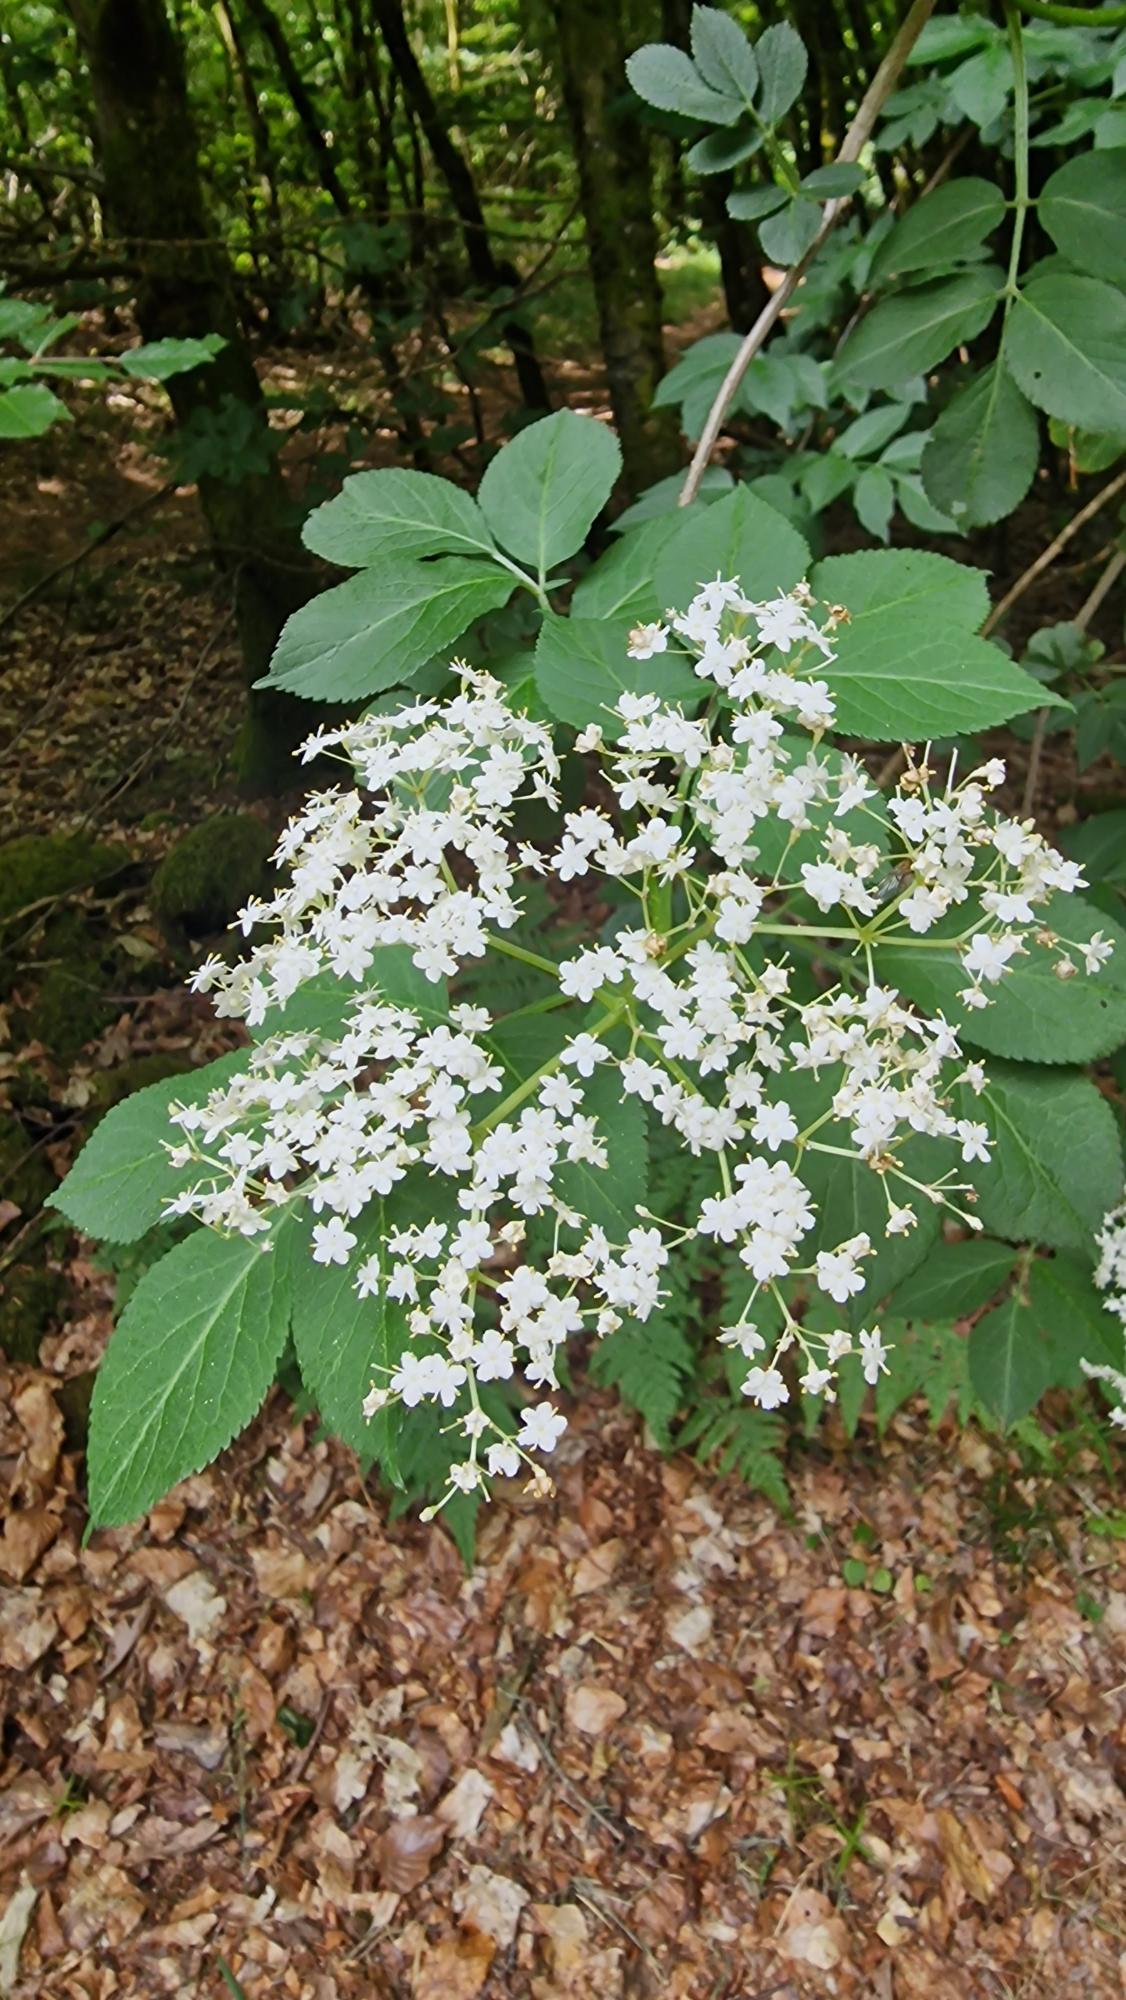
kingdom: Plantae
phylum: Tracheophyta
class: Magnoliopsida
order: Dipsacales
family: Viburnaceae
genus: Sambucus
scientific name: Sambucus nigra
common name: Almindelig hyld
